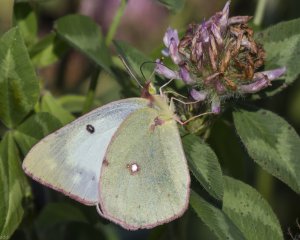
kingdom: Animalia
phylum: Arthropoda
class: Insecta
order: Lepidoptera
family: Pieridae
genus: Colias
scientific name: Colias philodice
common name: Clouded Sulphur
